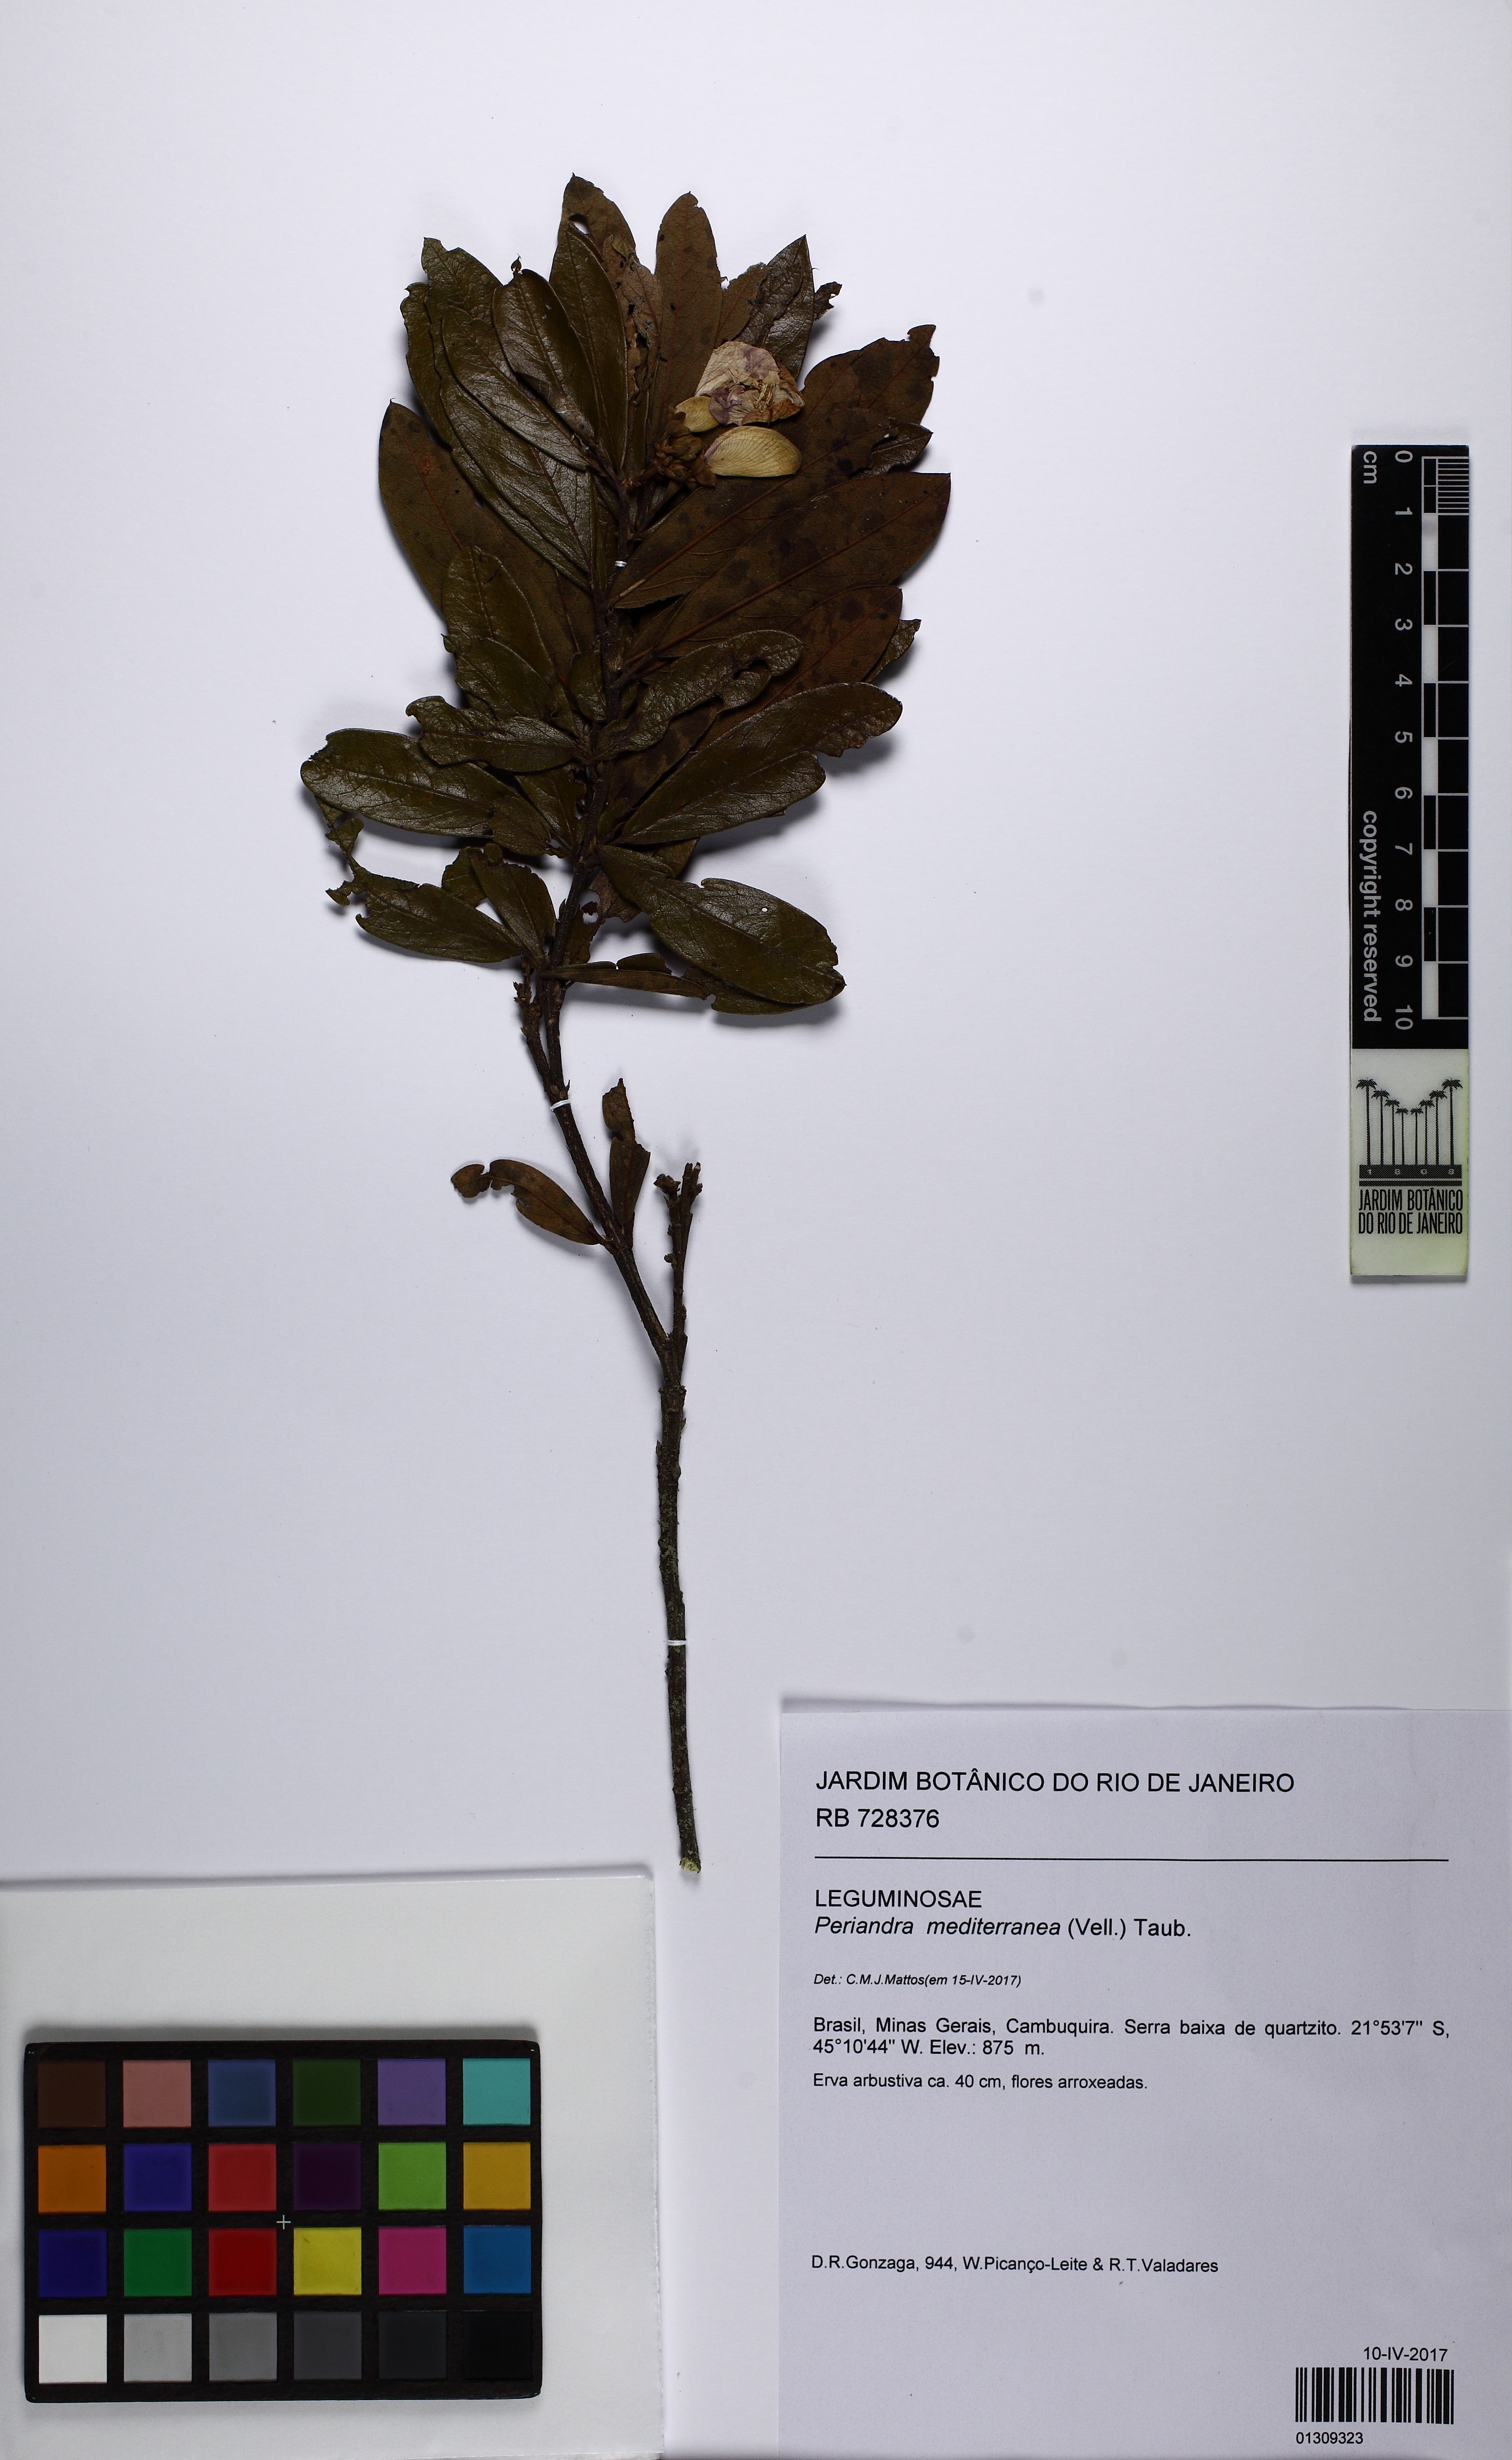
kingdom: Plantae
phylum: Tracheophyta
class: Magnoliopsida
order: Fabales
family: Fabaceae
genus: Periandra
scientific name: Periandra mediterranea
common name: Brazilian licorice
